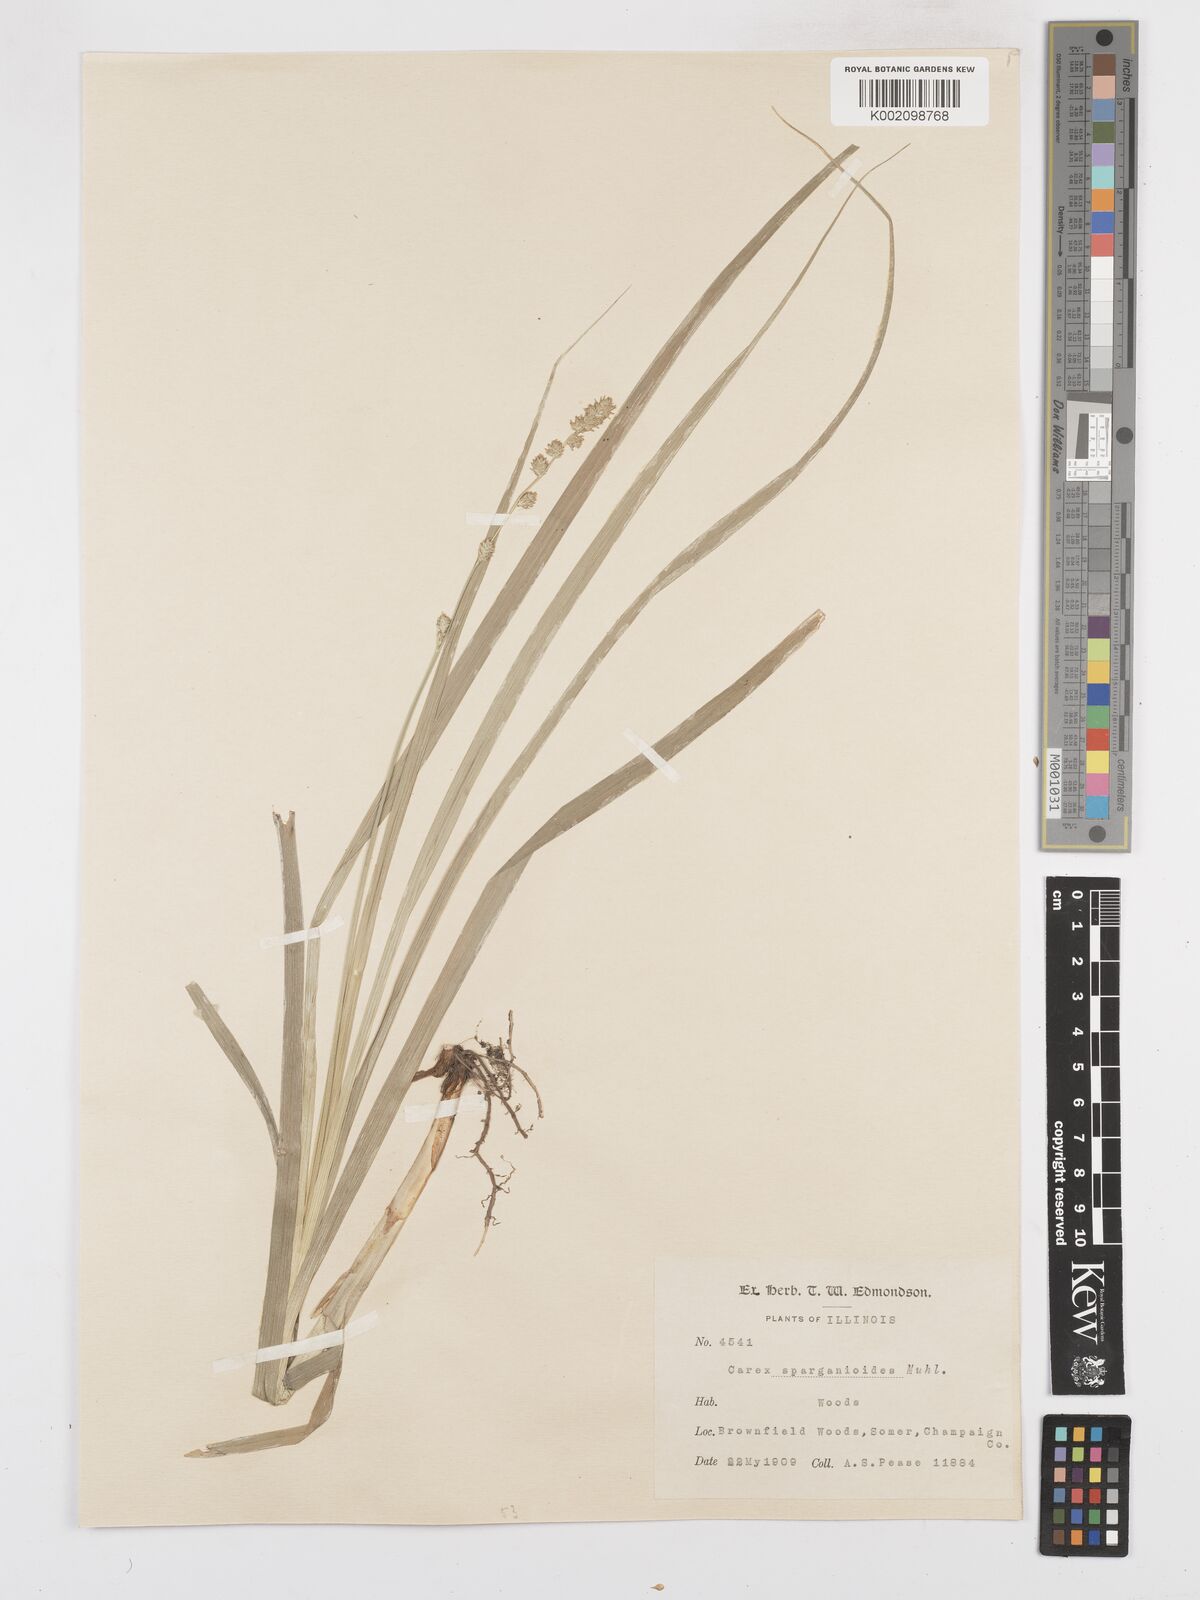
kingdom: Plantae
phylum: Tracheophyta
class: Liliopsida
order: Poales
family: Cyperaceae
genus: Carex
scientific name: Carex sparganioides
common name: Burreed sedge
